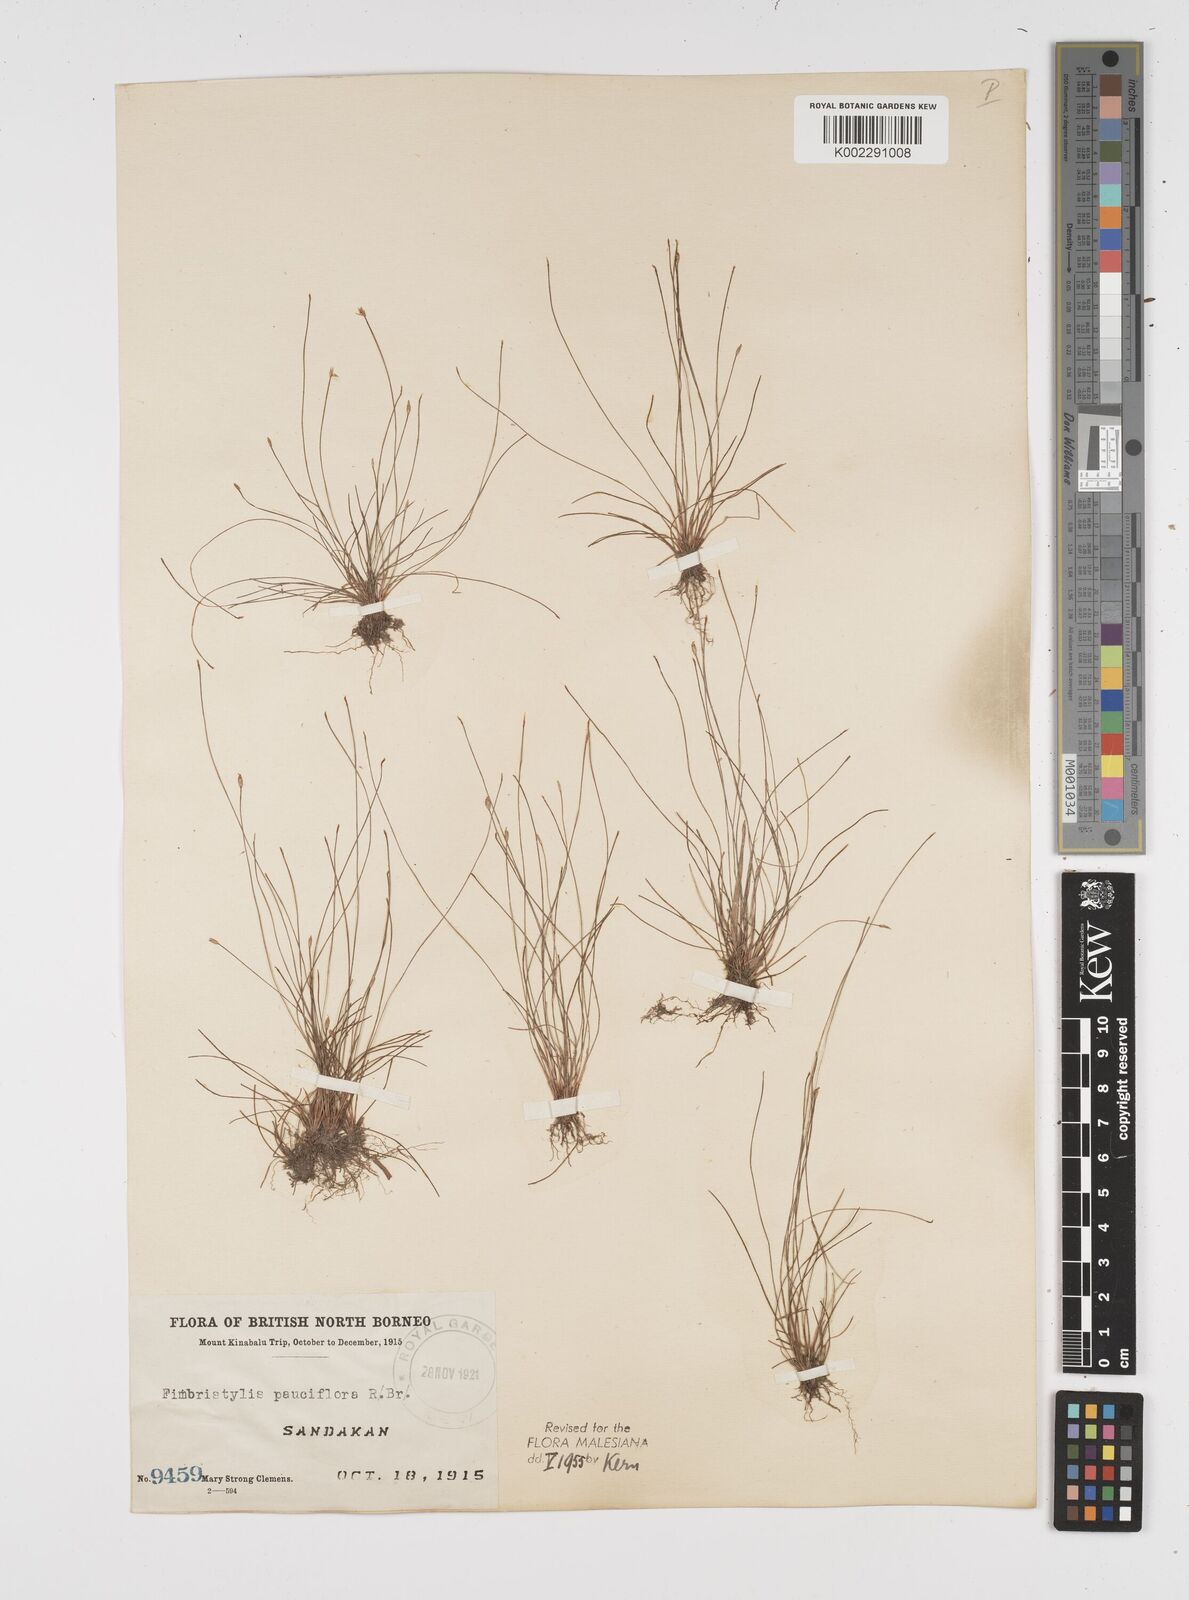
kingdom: Plantae
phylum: Tracheophyta
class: Liliopsida
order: Poales
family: Cyperaceae
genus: Fimbristylis
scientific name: Fimbristylis pauciflora
